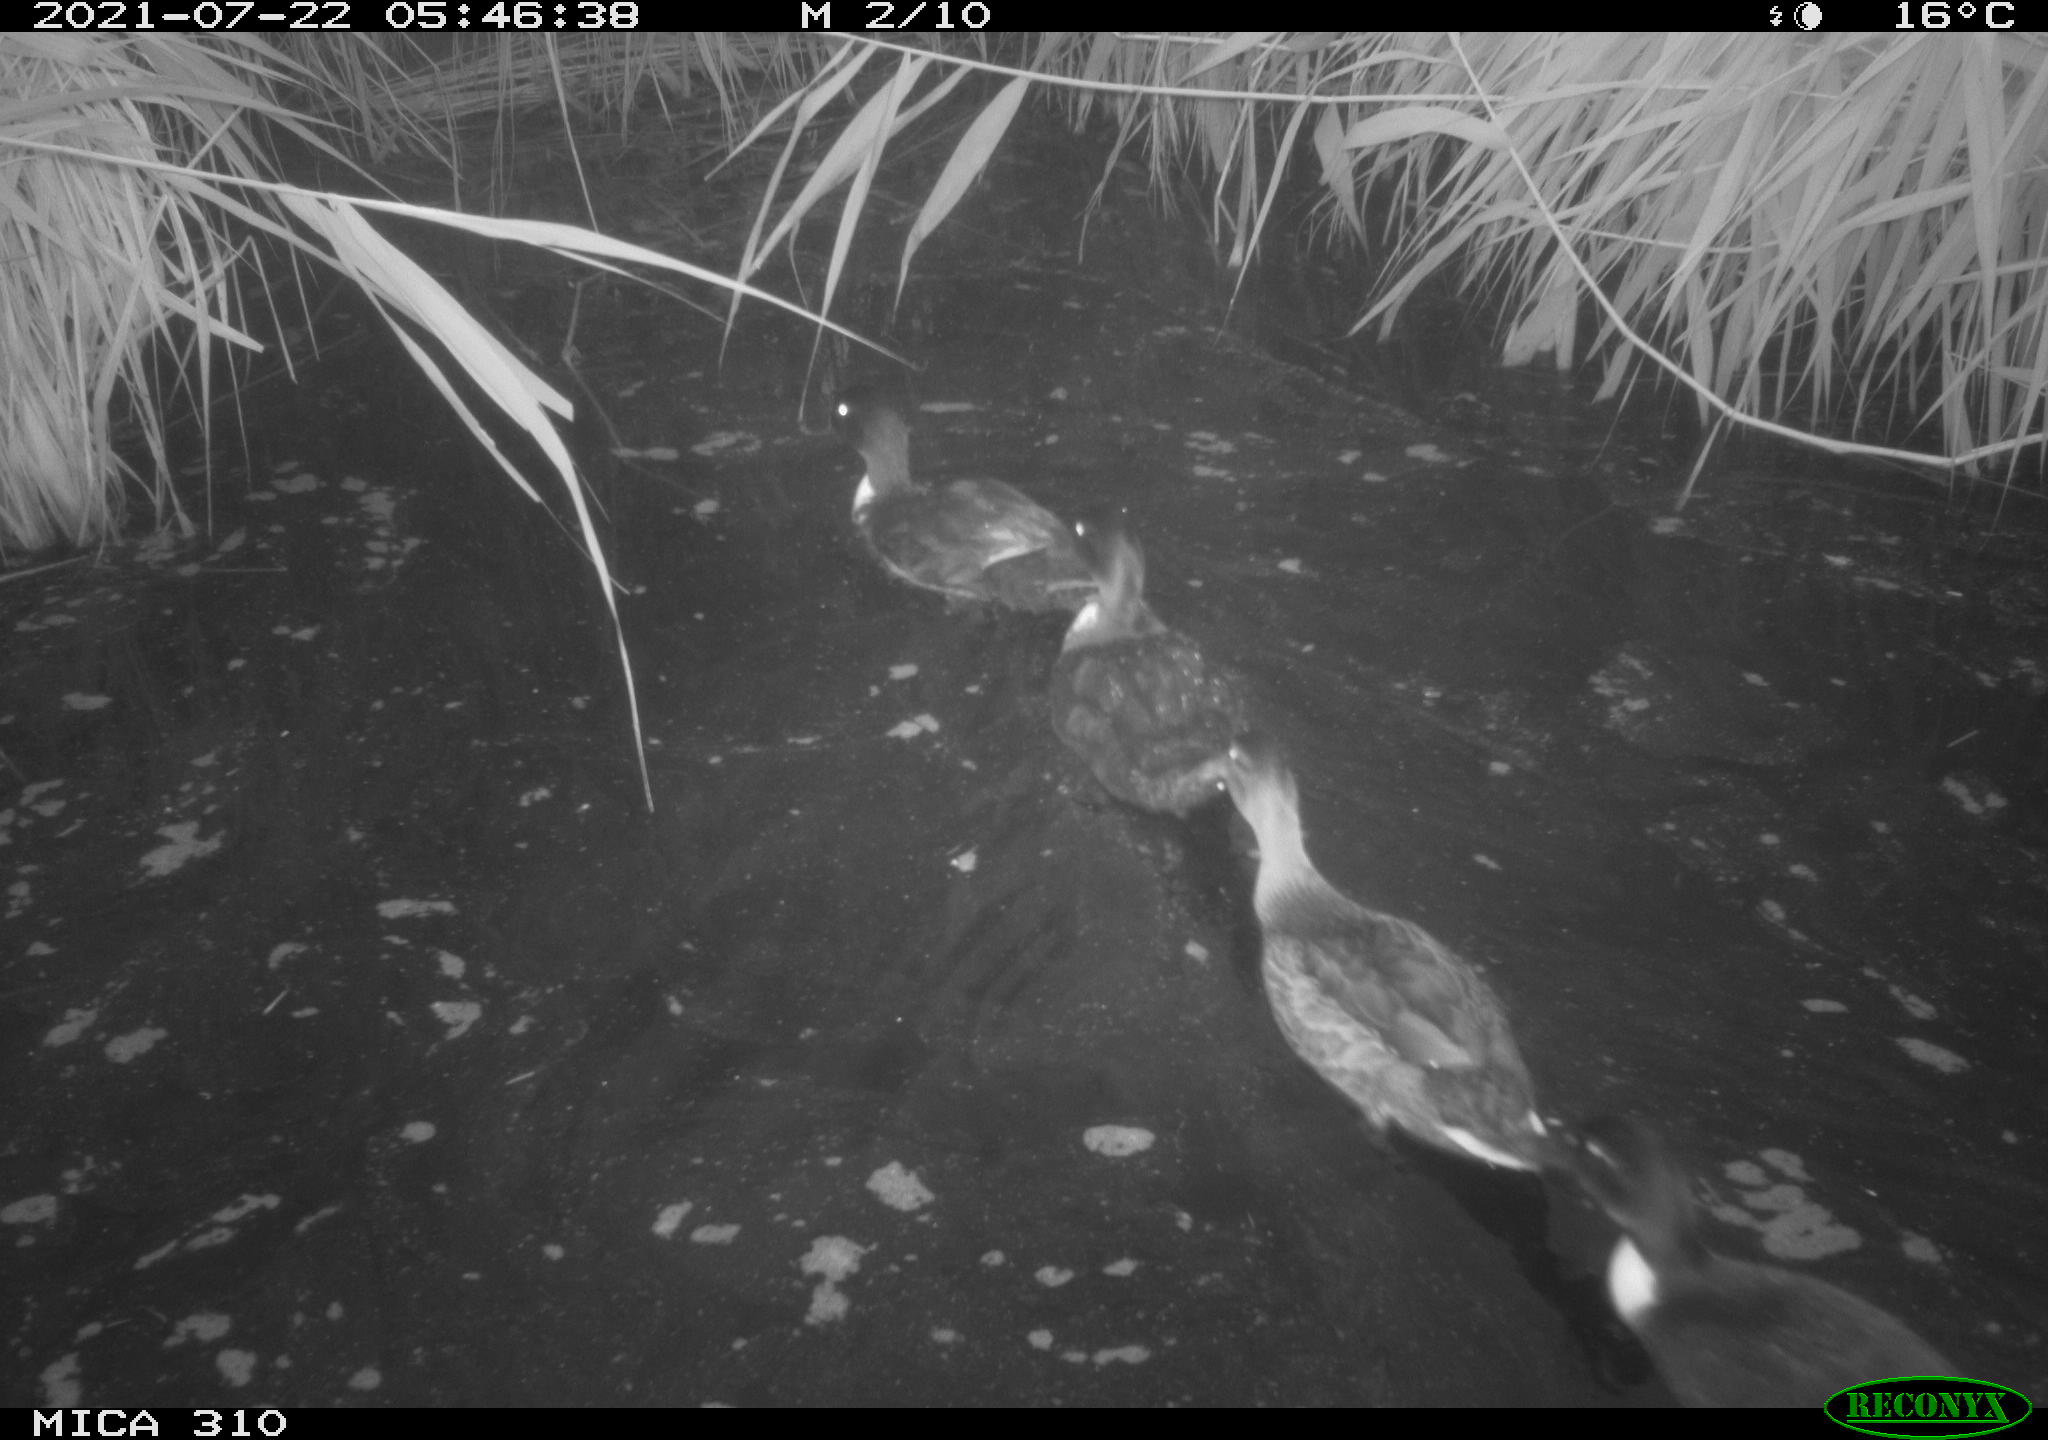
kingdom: Animalia
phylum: Chordata
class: Aves
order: Anseriformes
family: Anatidae
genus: Anas
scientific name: Anas platyrhynchos
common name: Mallard
